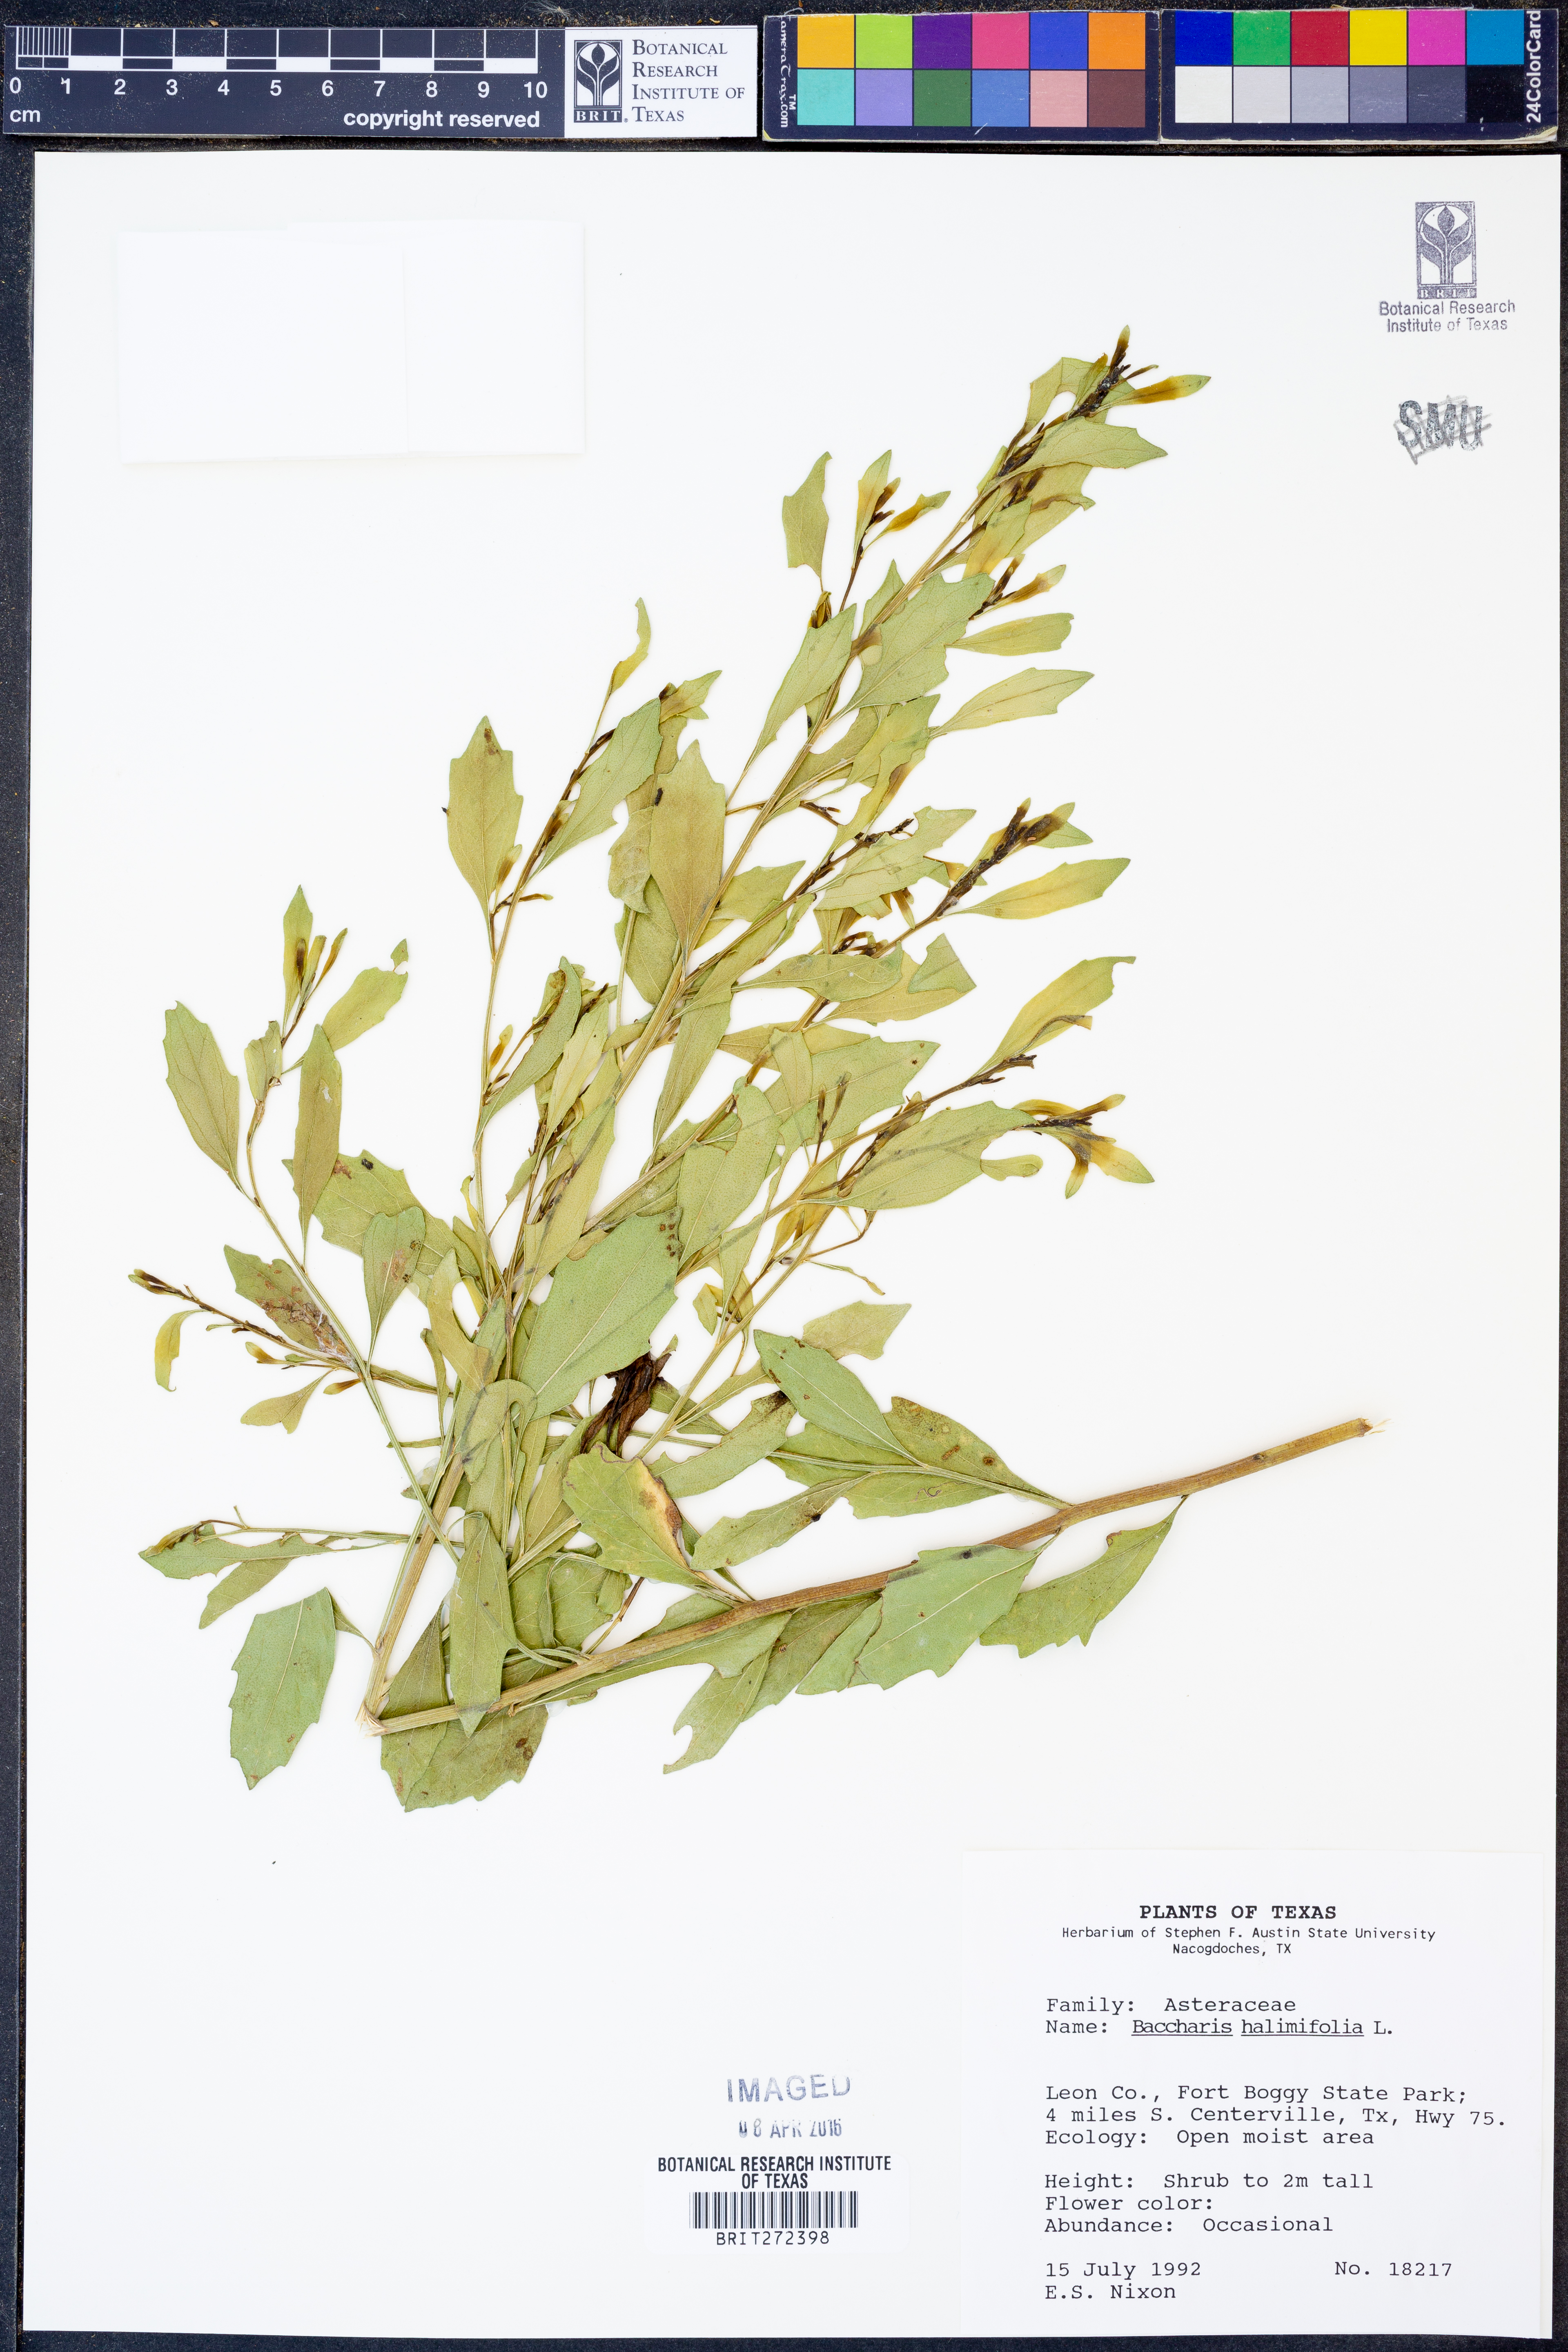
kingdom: Plantae
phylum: Tracheophyta
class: Magnoliopsida
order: Asterales
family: Asteraceae
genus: Nidorella
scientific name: Nidorella ivifolia
